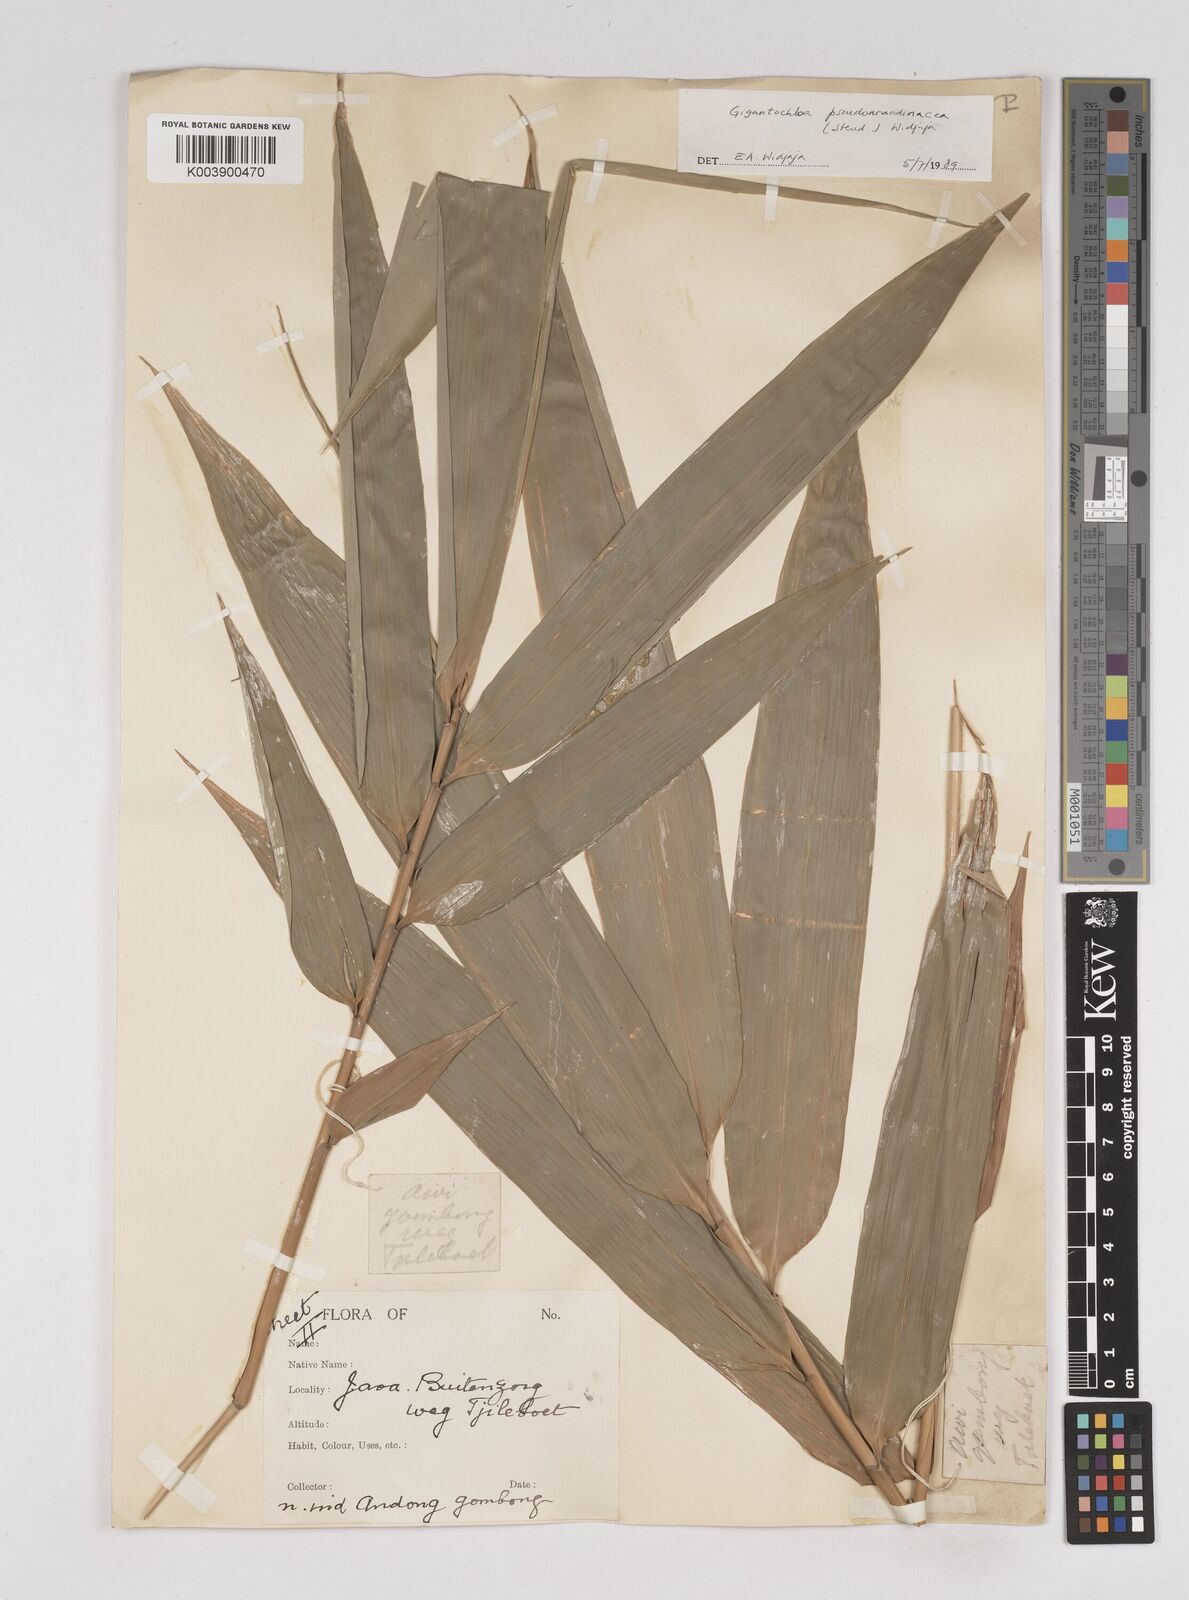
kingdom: Plantae
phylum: Tracheophyta
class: Liliopsida
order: Poales
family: Poaceae
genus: Gigantochloa
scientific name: Gigantochloa verticillata
